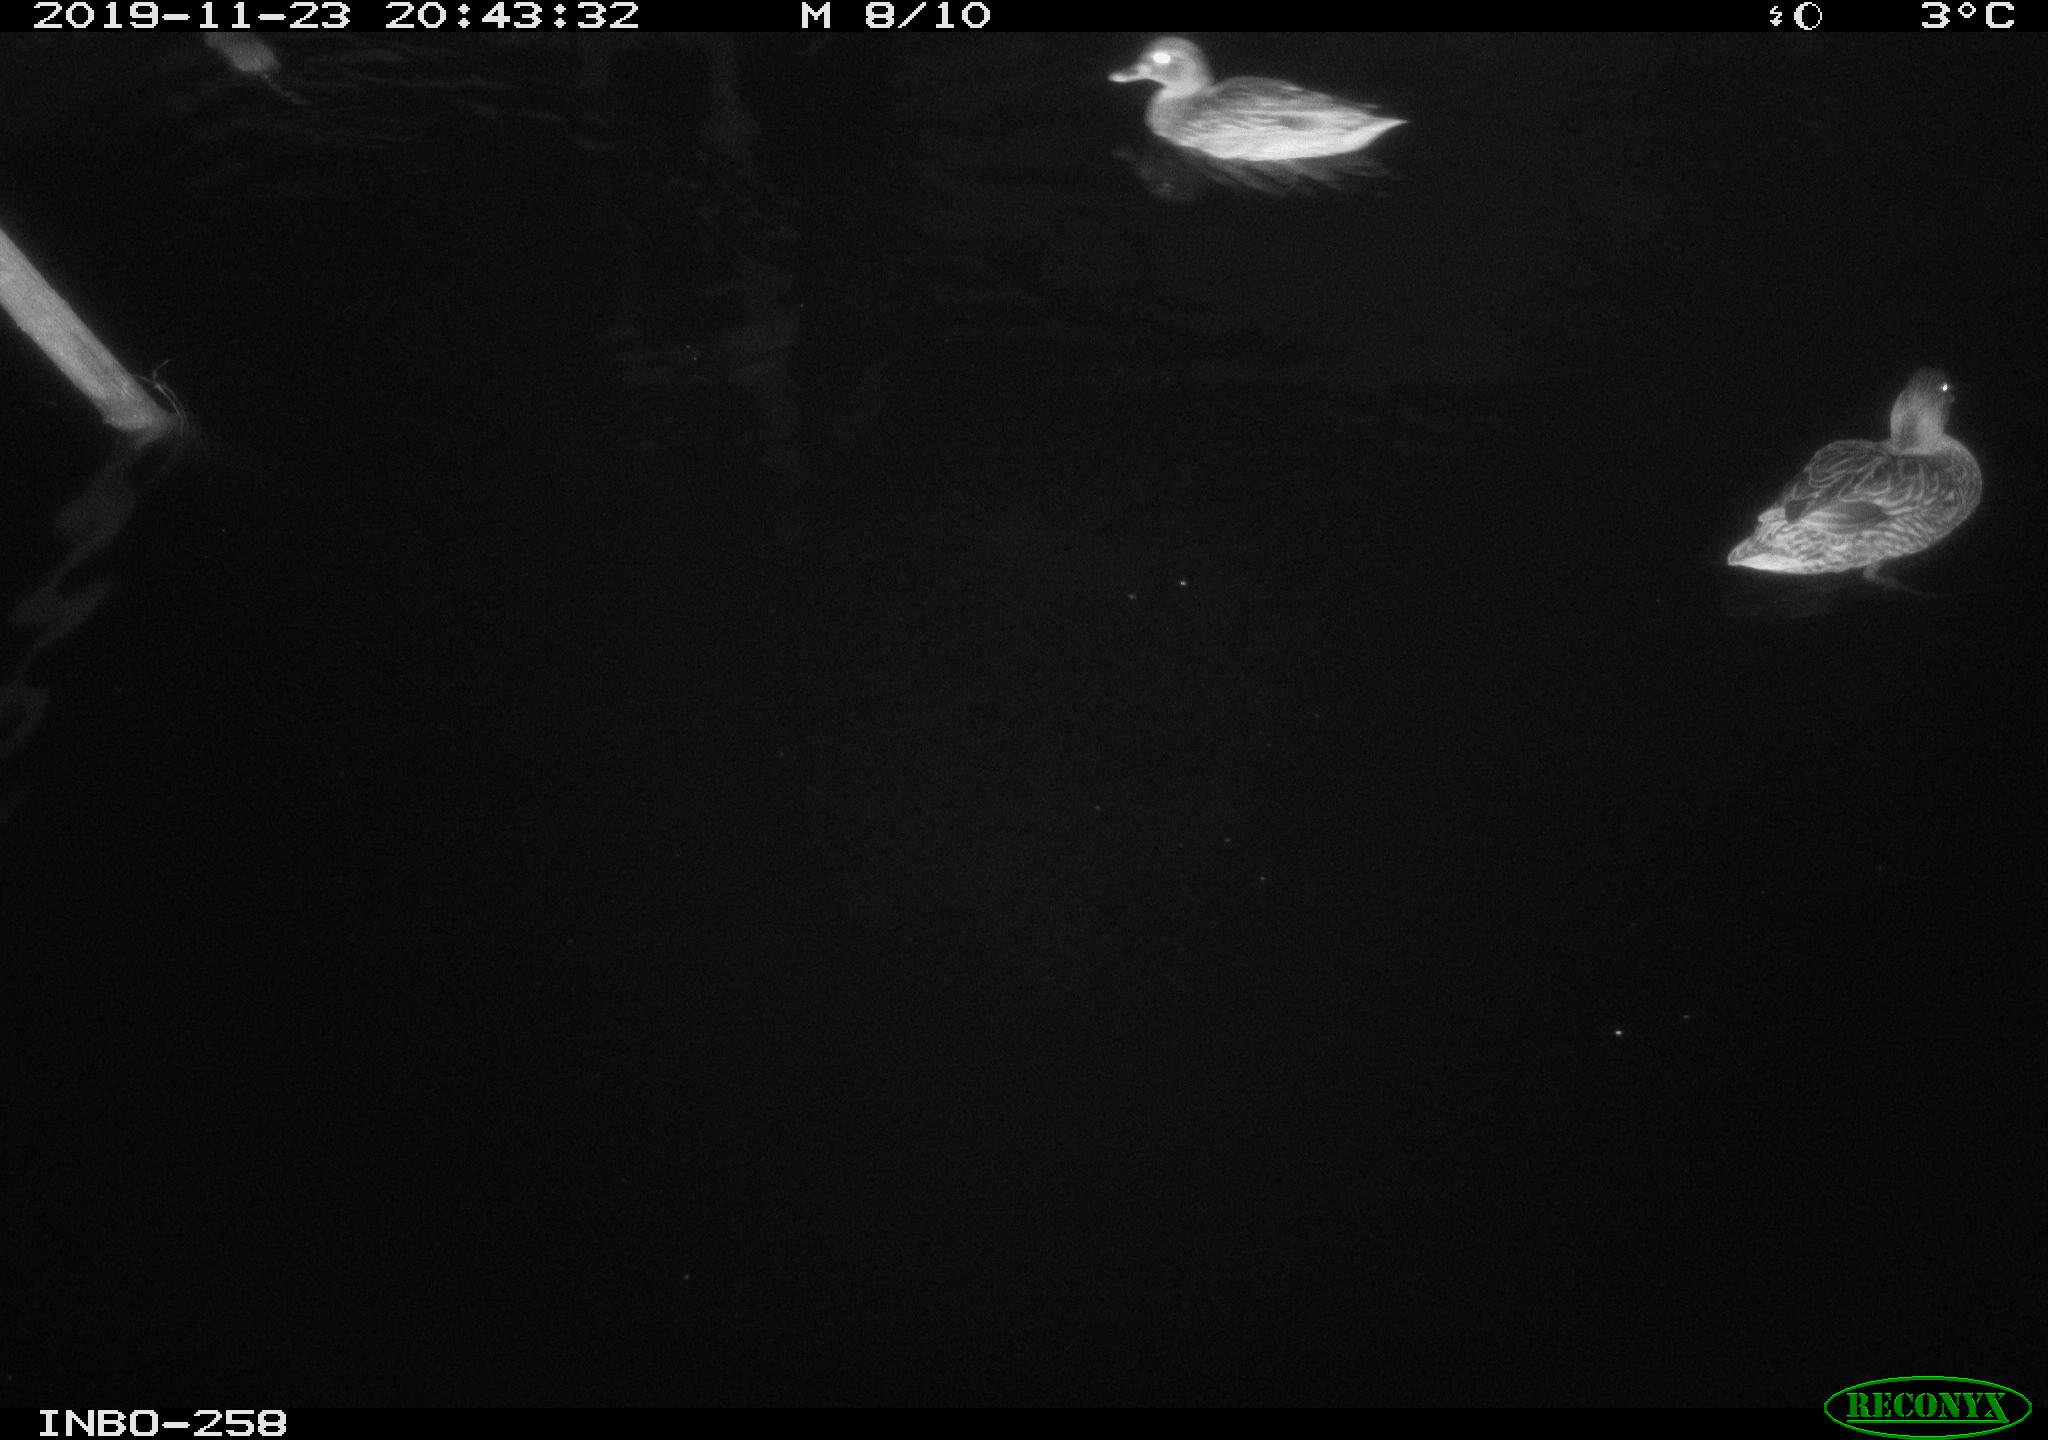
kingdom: Animalia
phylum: Chordata
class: Aves
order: Anseriformes
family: Anatidae
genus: Anas
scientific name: Anas platyrhynchos
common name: Mallard
